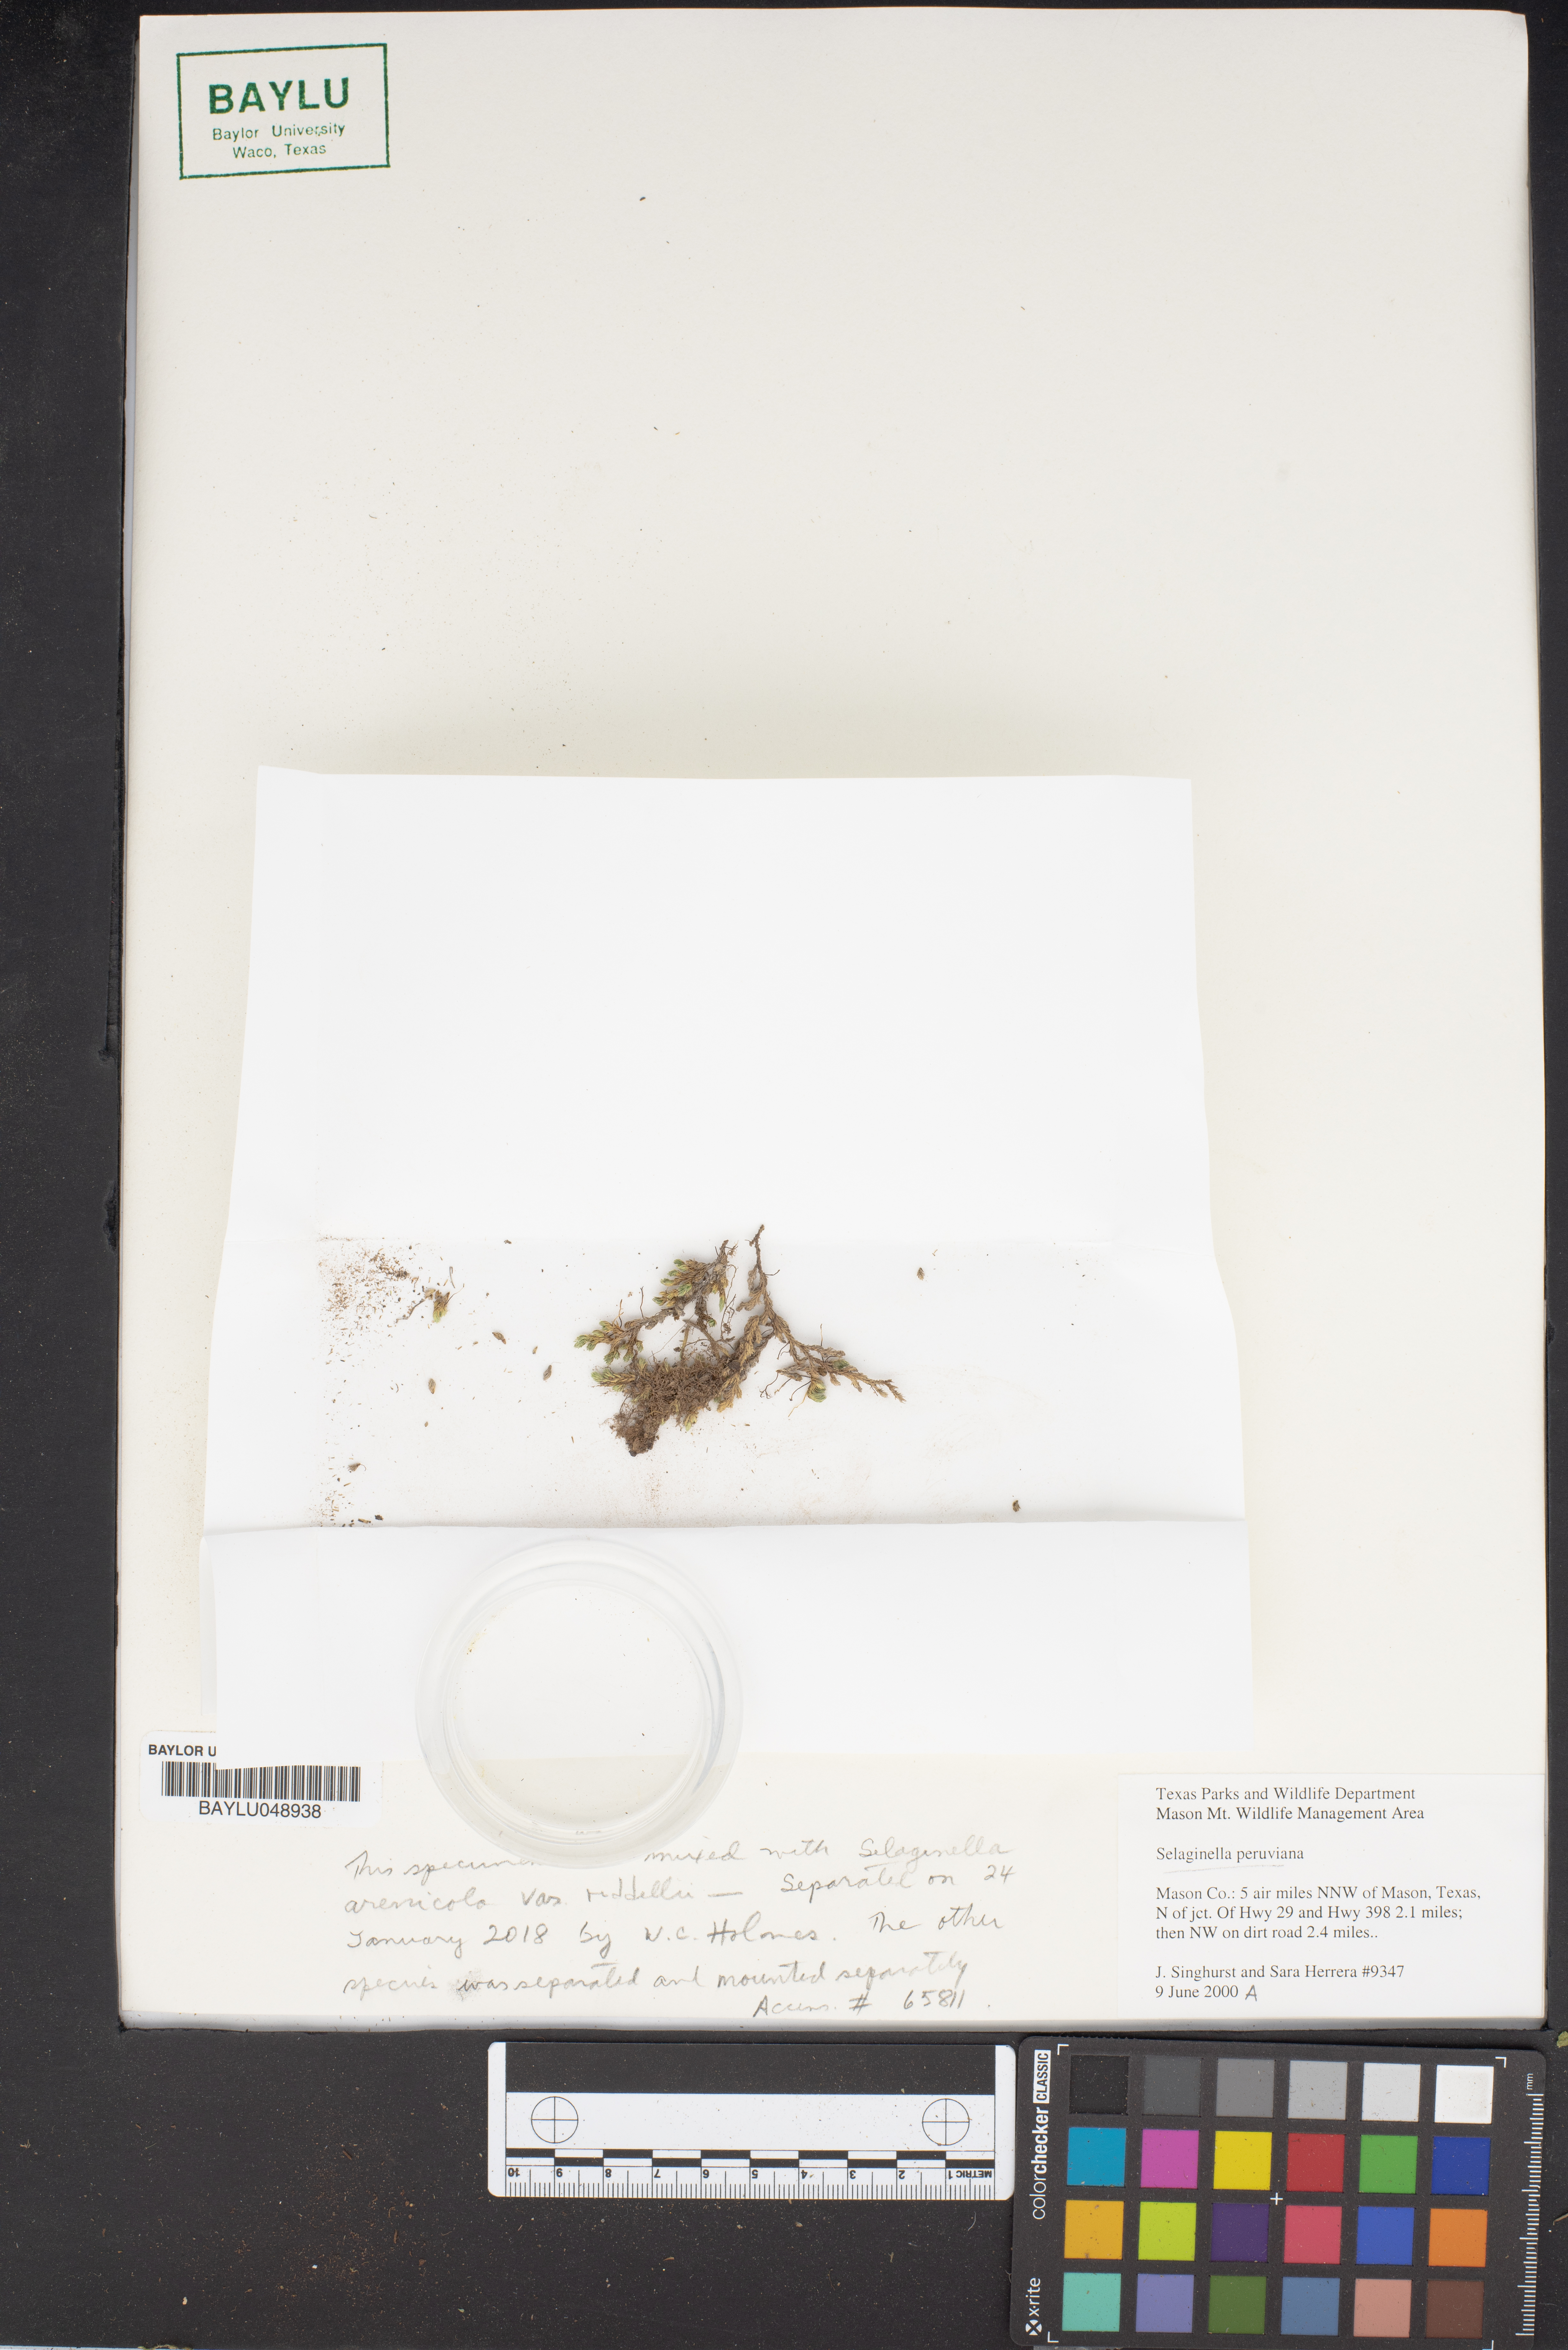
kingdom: Plantae
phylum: Tracheophyta
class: Lycopodiopsida
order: Selaginellales
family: Selaginellaceae
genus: Selaginella
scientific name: Selaginella peruviana
